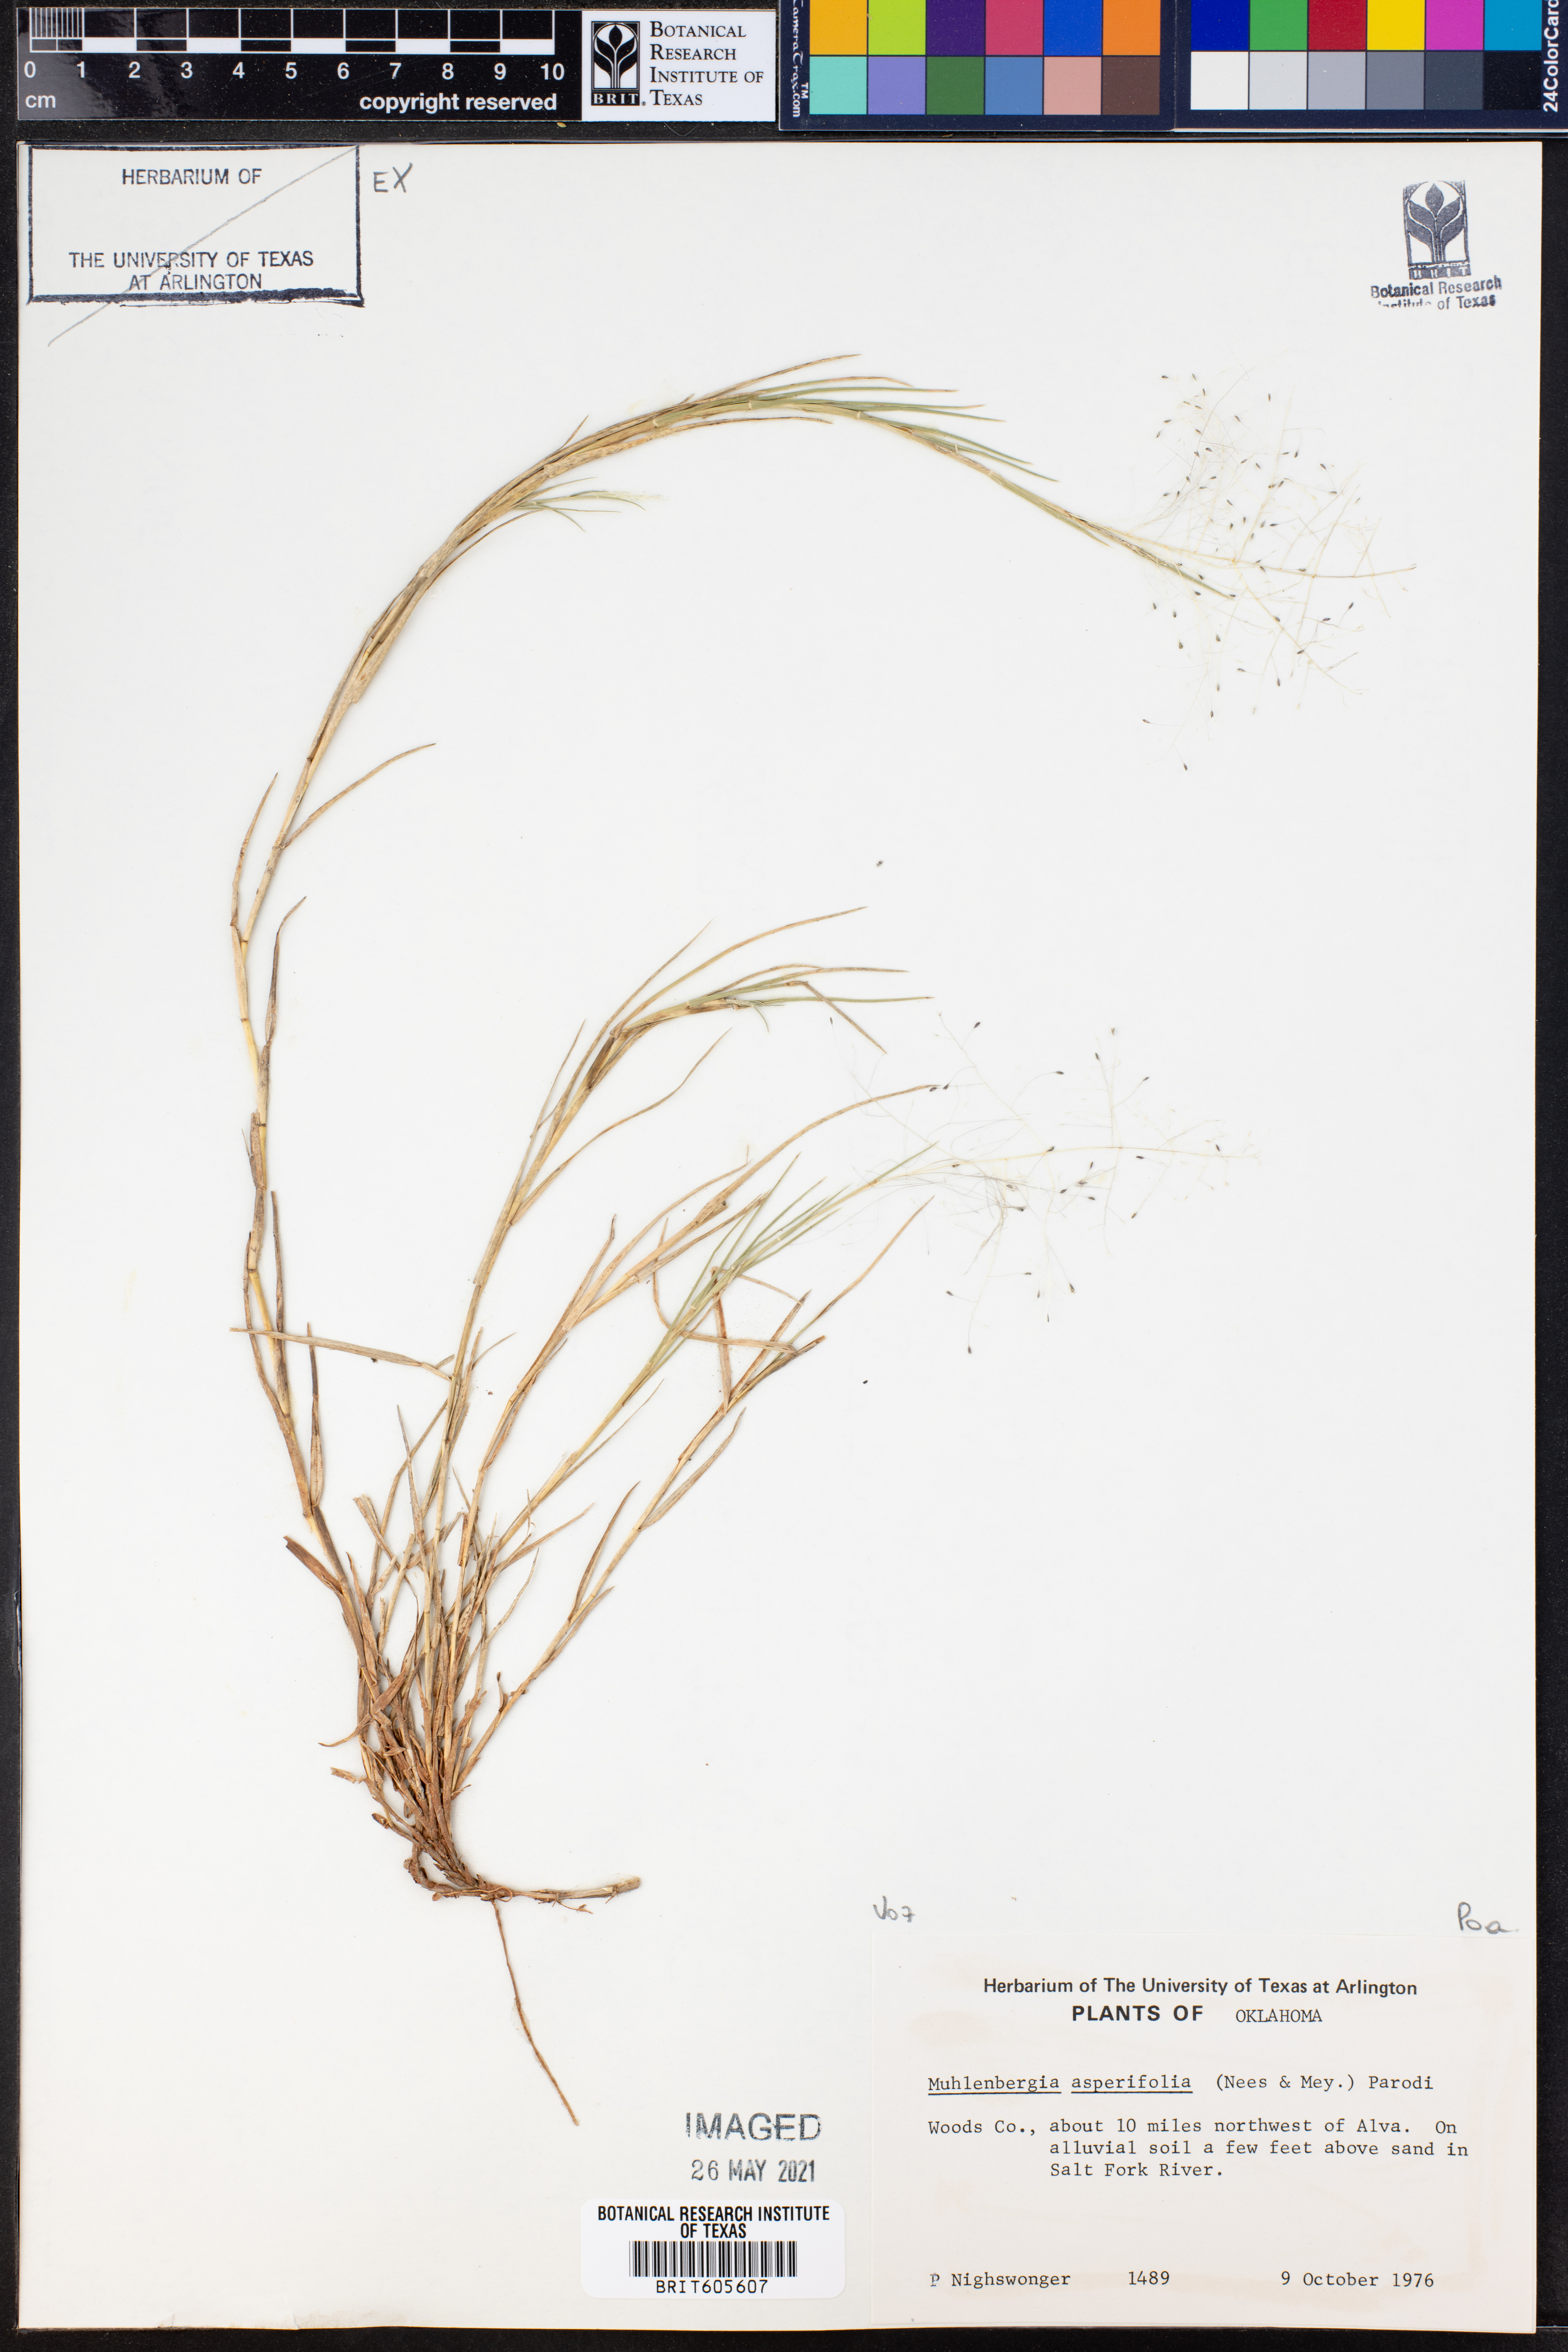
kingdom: Plantae
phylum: Tracheophyta
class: Liliopsida
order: Poales
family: Poaceae
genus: Muhlenbergia
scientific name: Muhlenbergia asperifolia
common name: Alkali muhly
